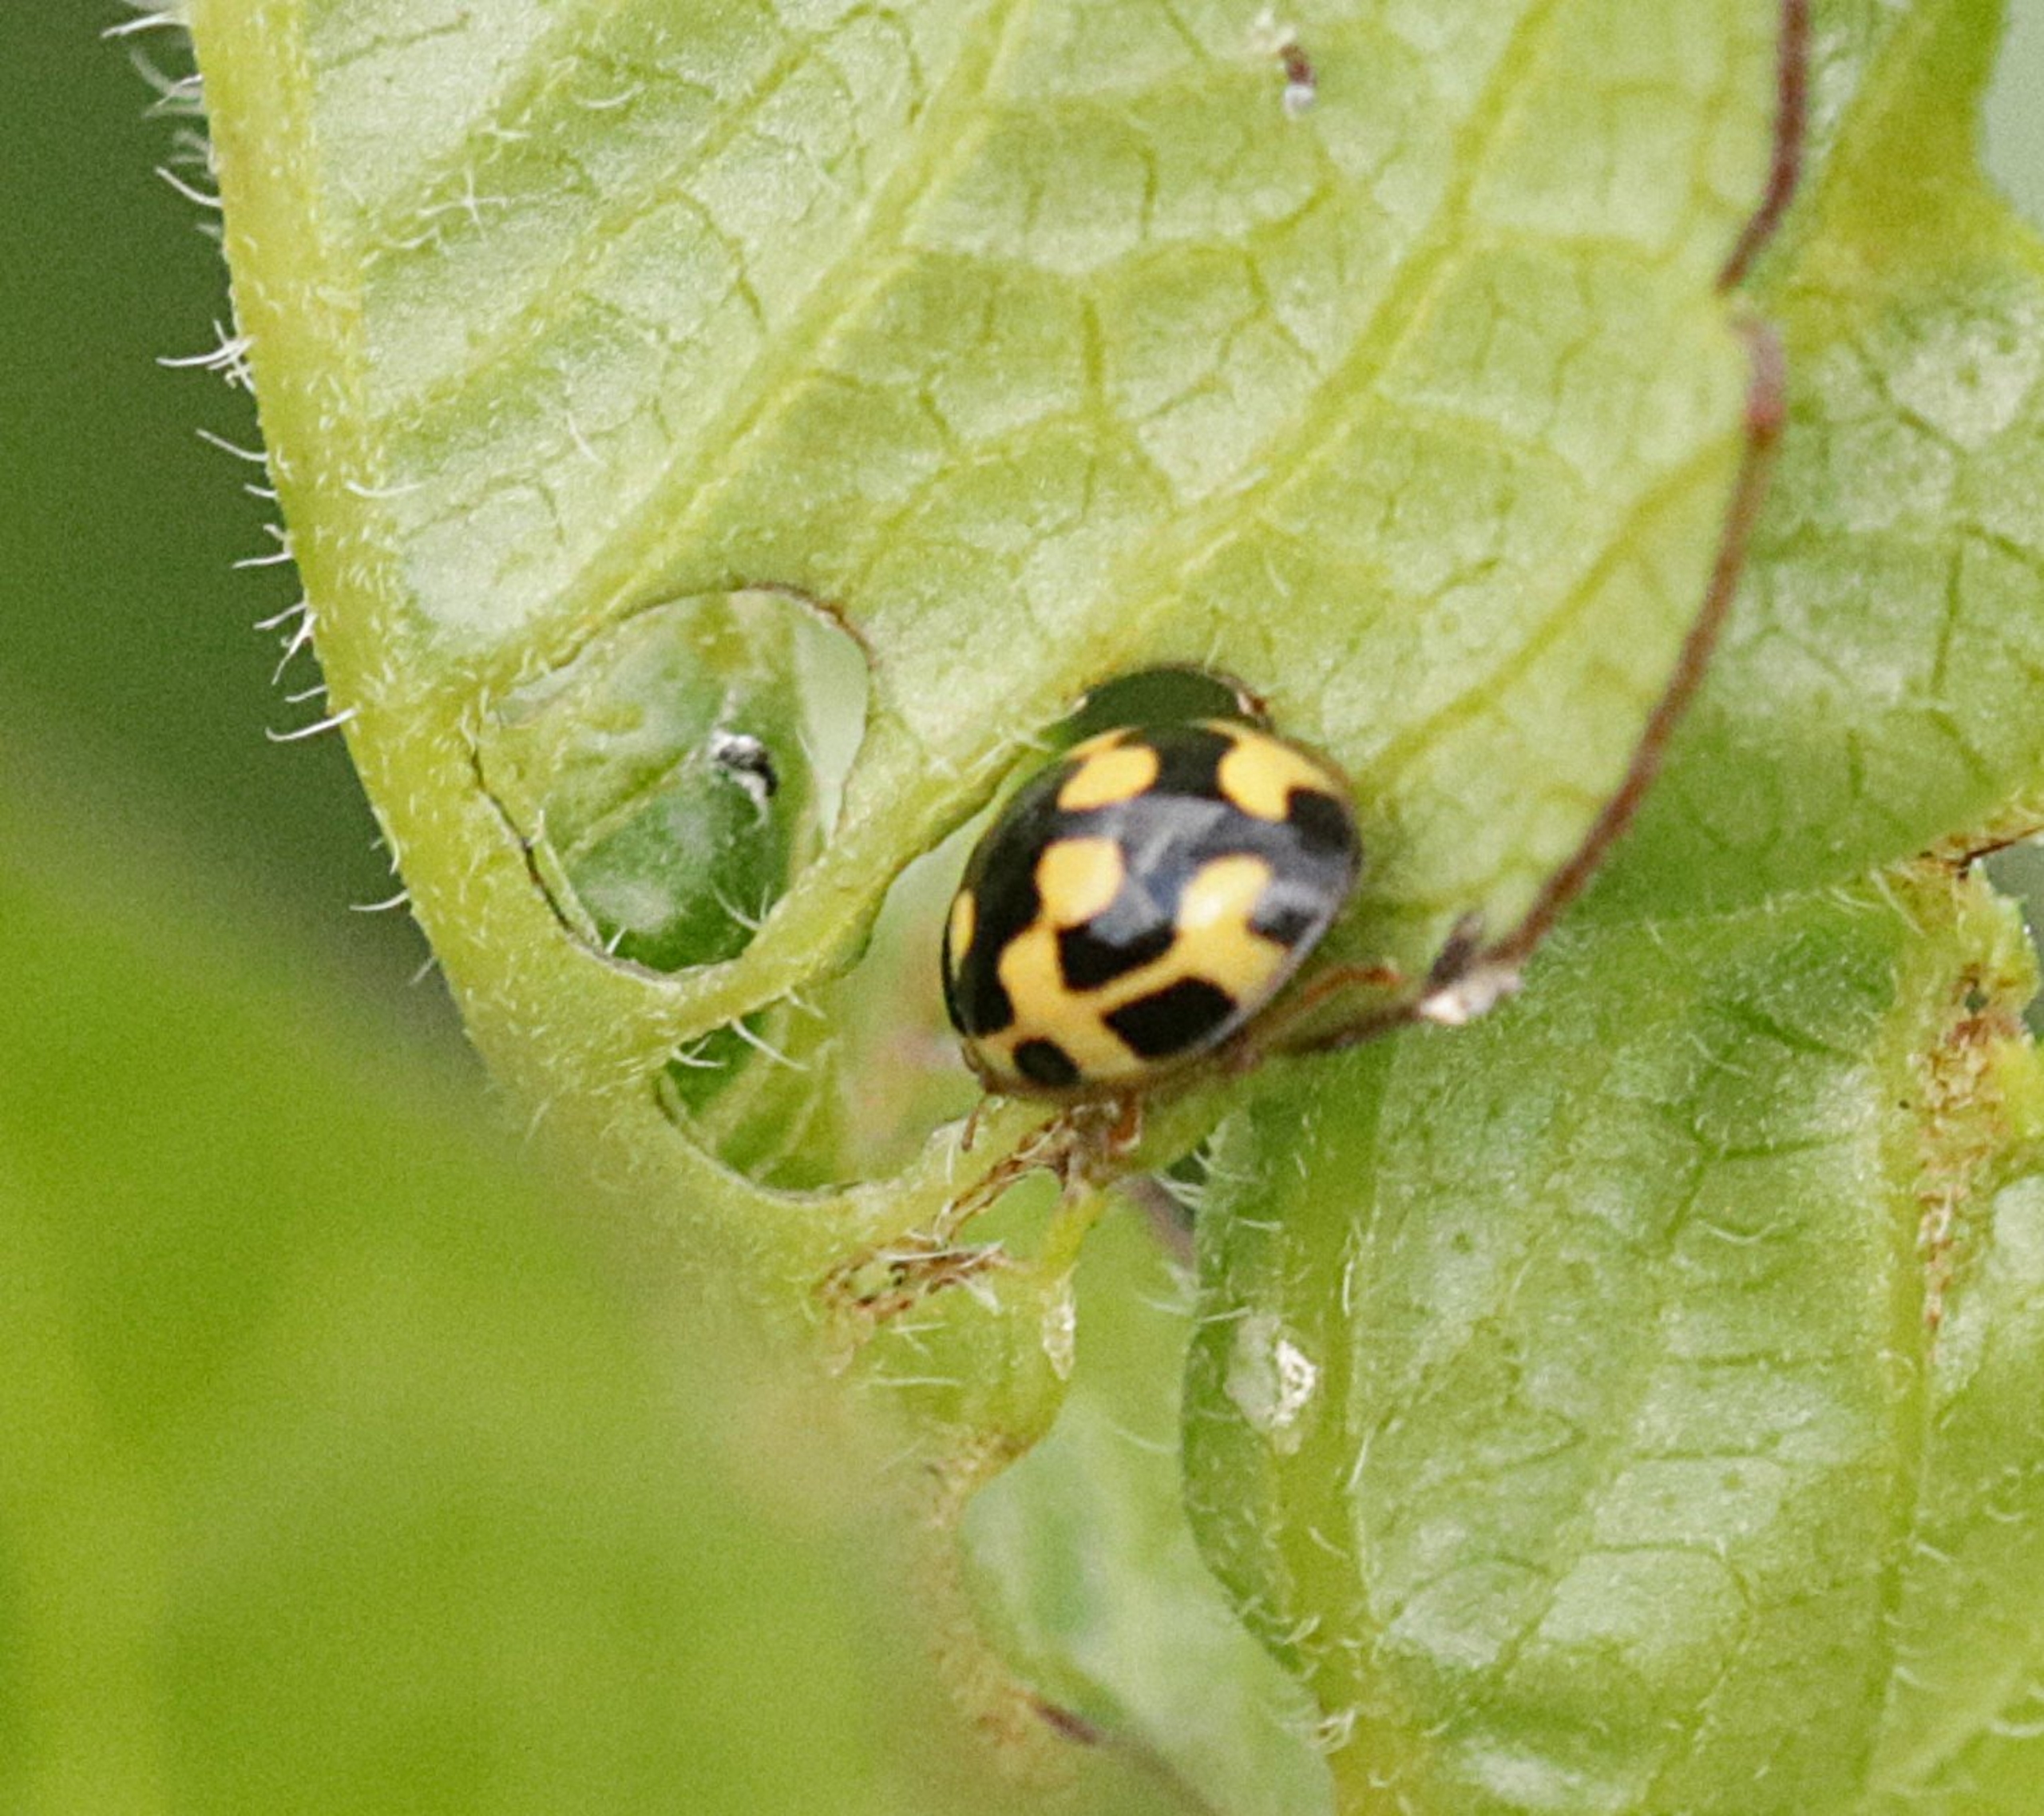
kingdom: Animalia
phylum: Arthropoda
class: Insecta
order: Coleoptera
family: Coccinellidae
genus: Propylaea
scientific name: Propylaea quatuordecimpunctata
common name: Skakbræt
